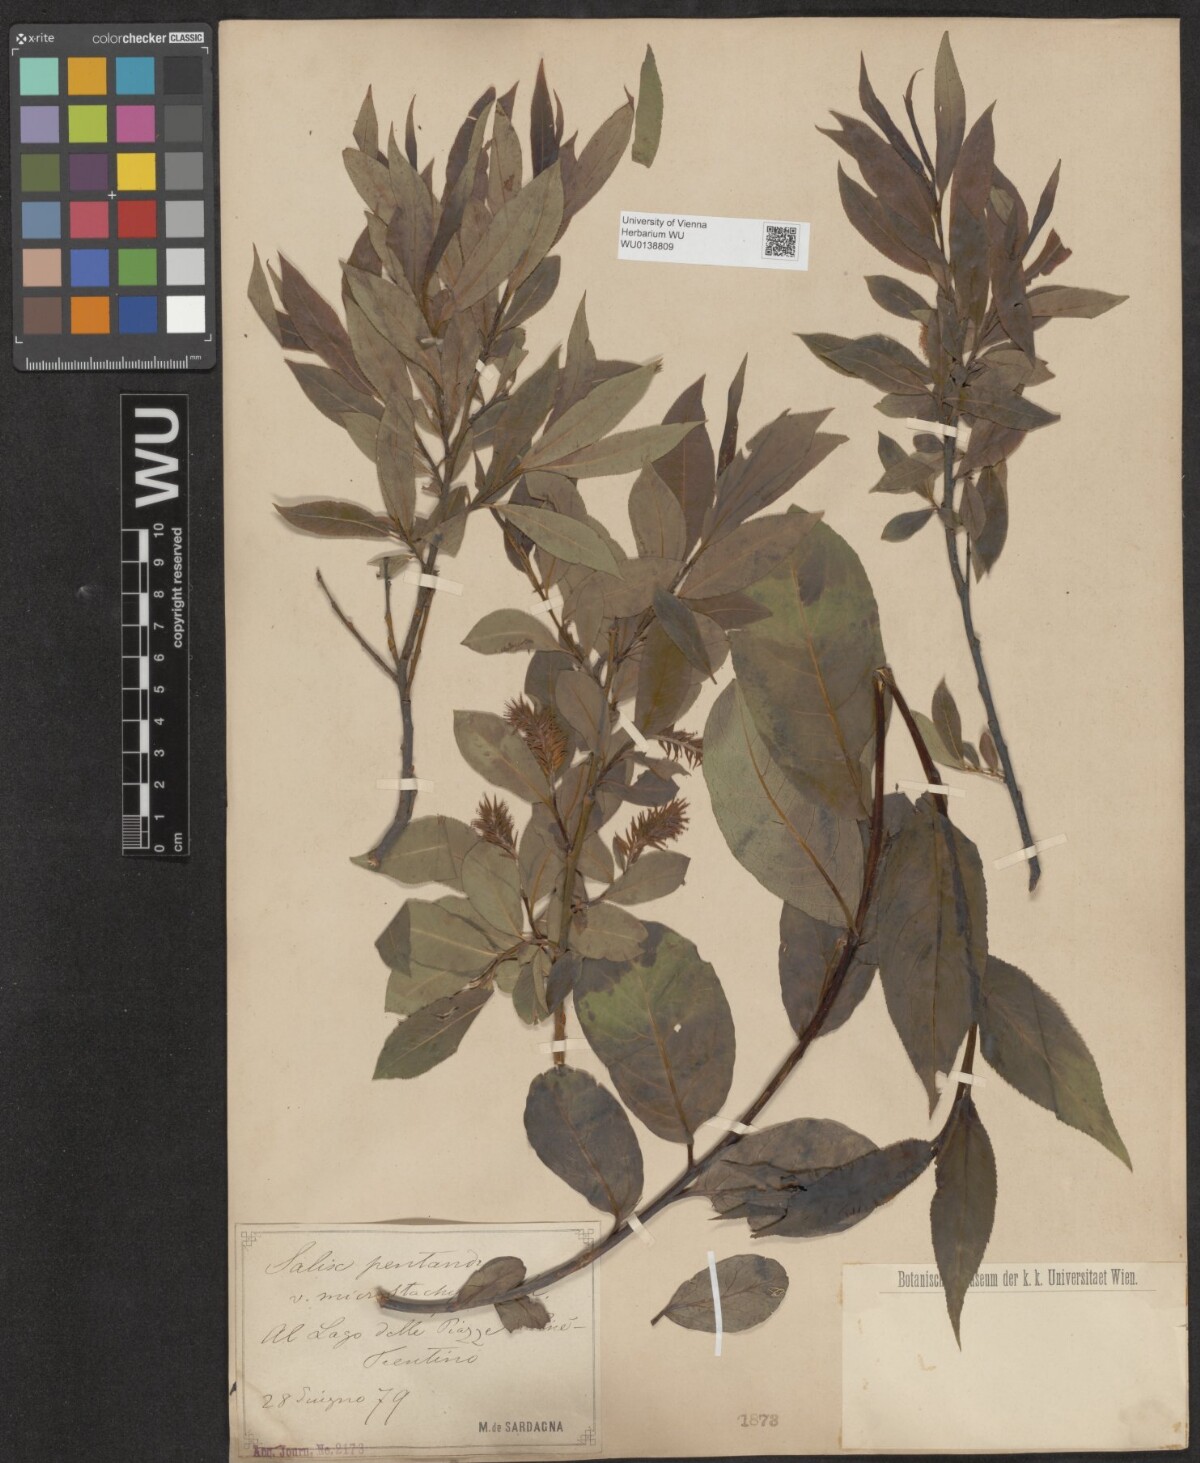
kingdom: Plantae
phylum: Tracheophyta
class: Magnoliopsida
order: Malpighiales
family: Salicaceae
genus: Salix
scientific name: Salix pentandra
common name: Bay willow
